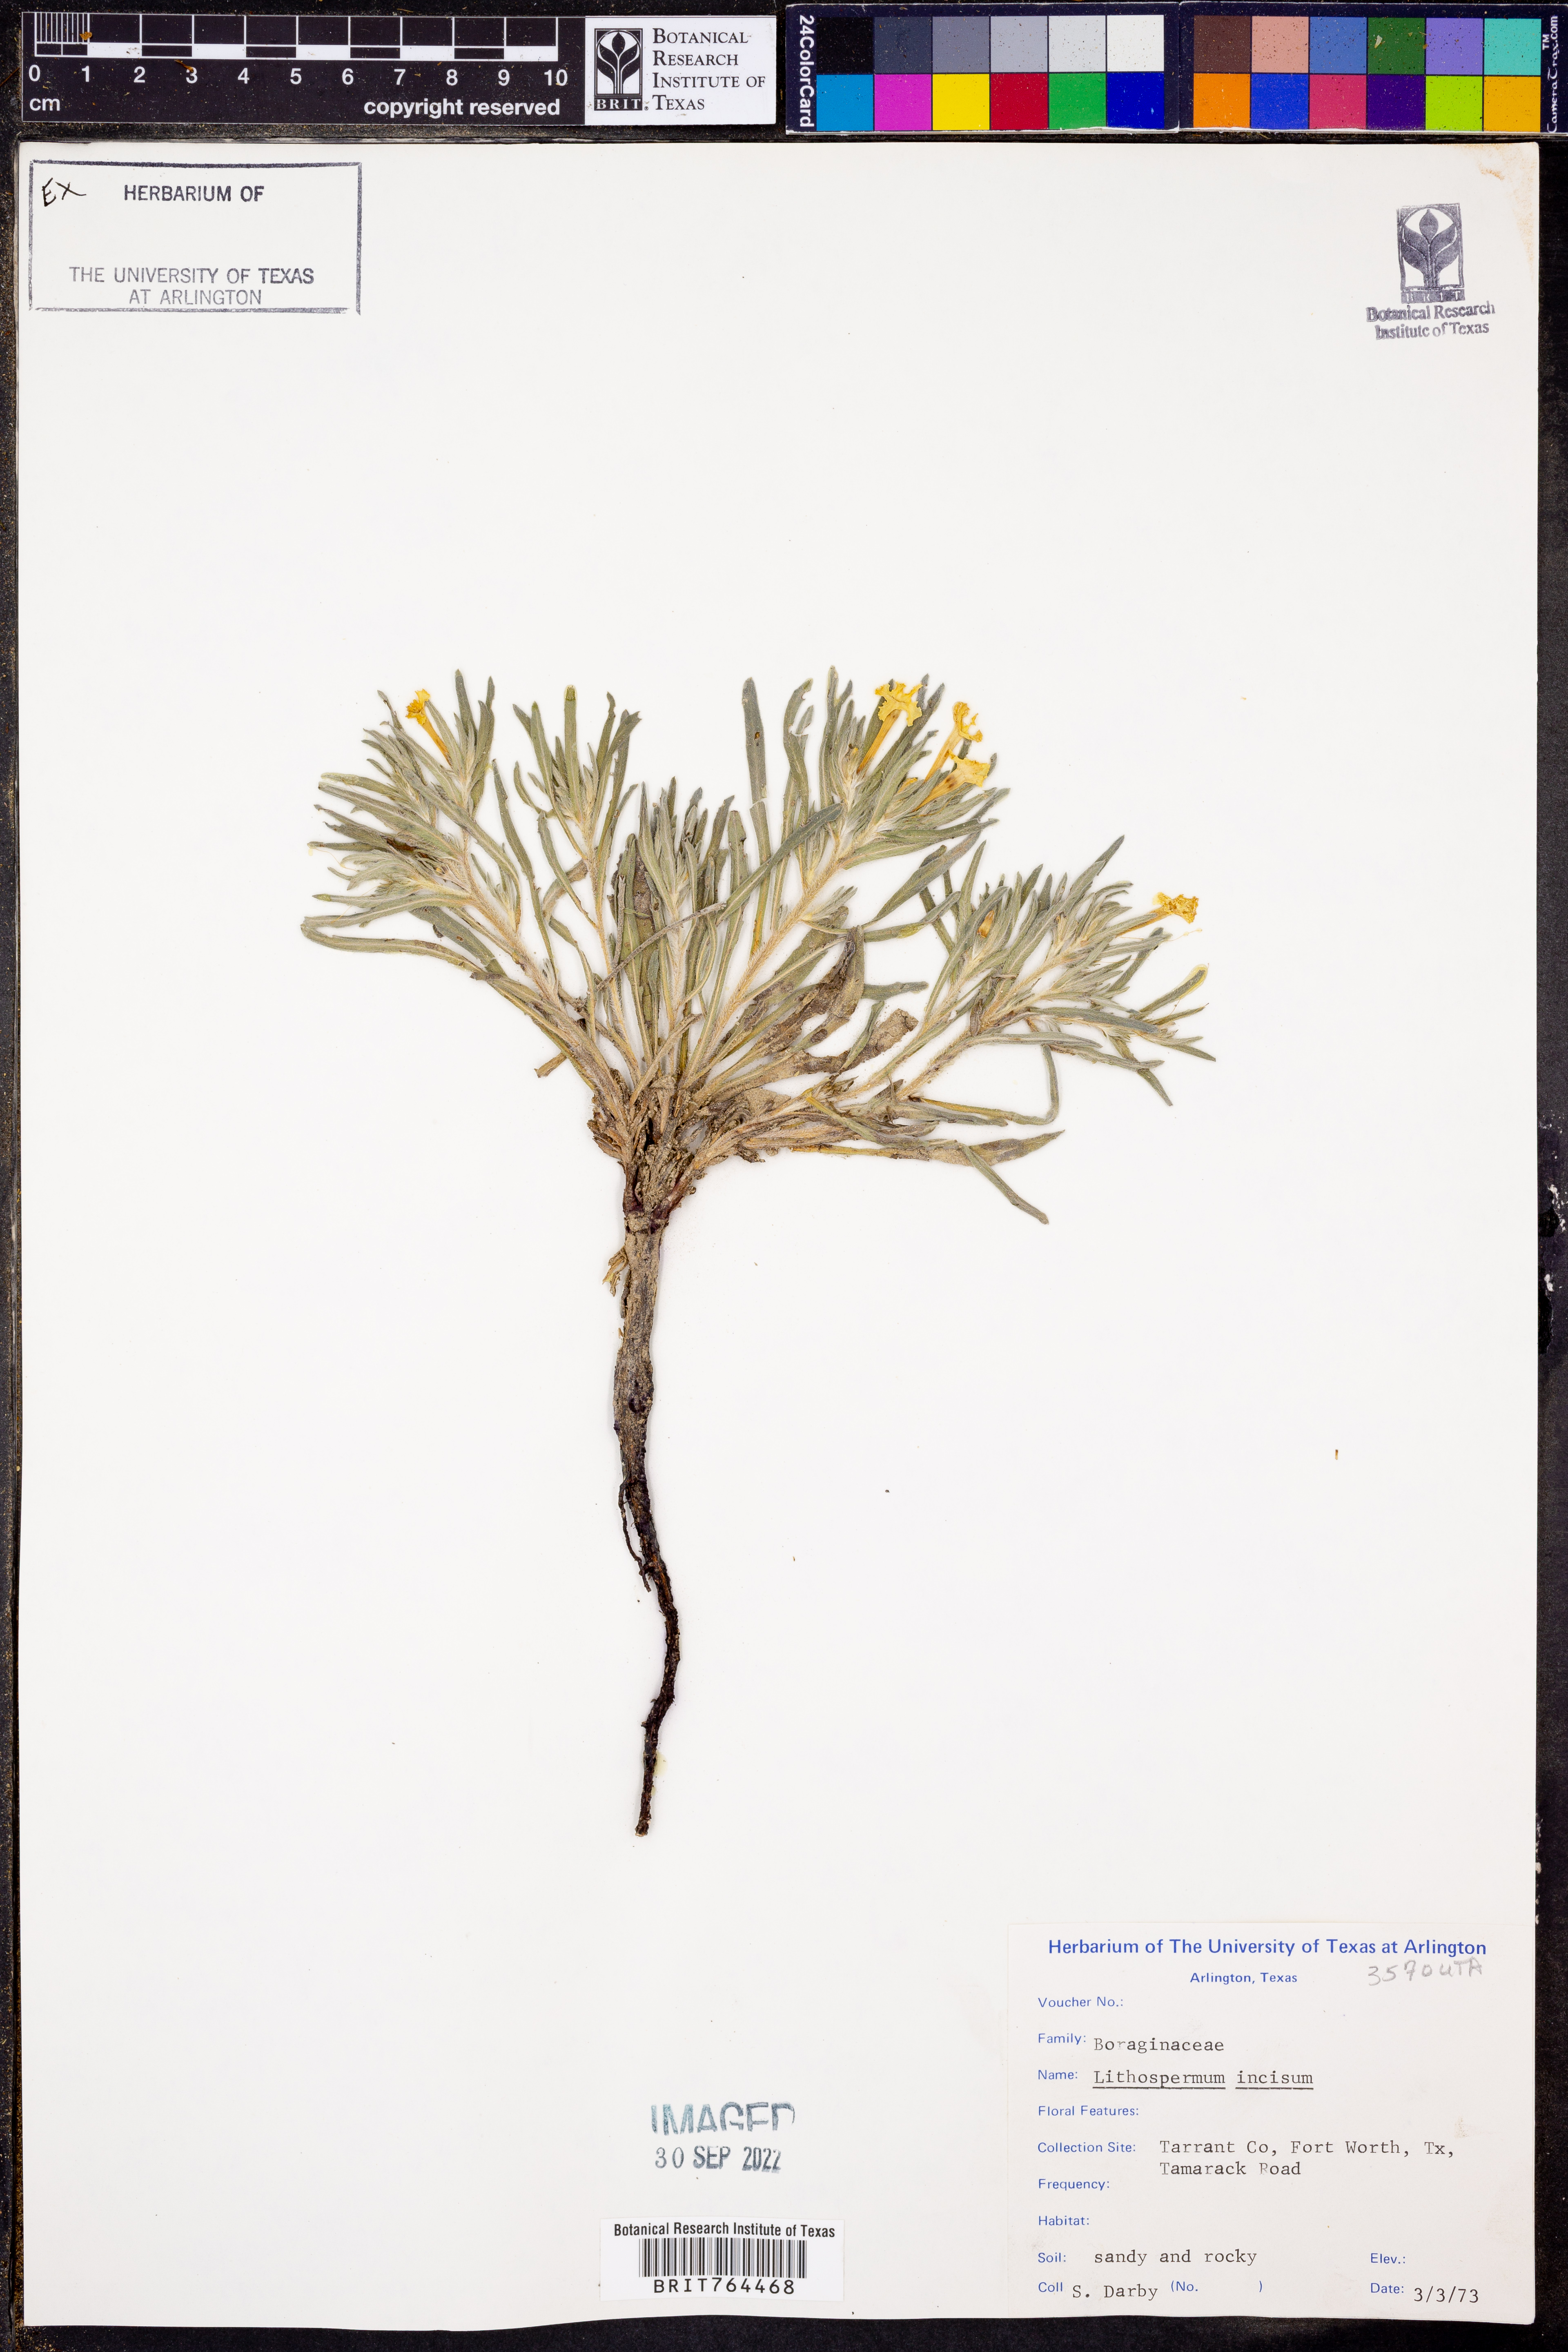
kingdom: Plantae
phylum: Tracheophyta
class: Magnoliopsida
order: Boraginales
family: Boraginaceae
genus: Lithospermum
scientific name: Lithospermum incisum
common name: Fringed gromwell
